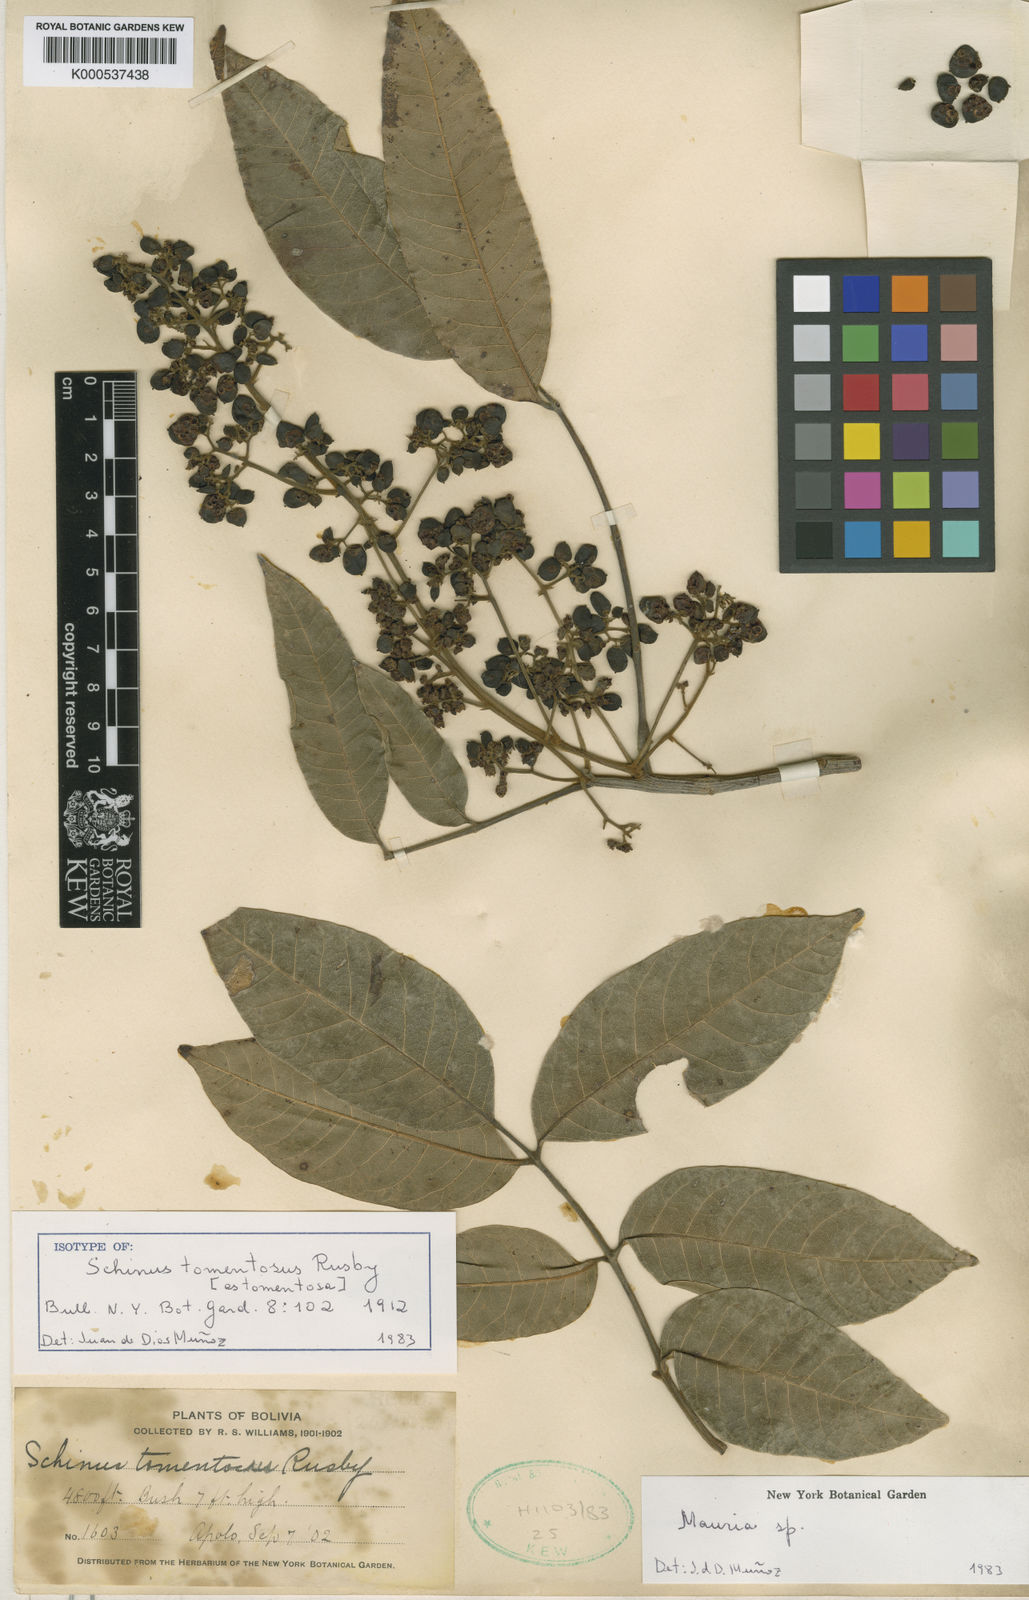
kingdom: Plantae
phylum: Tracheophyta
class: Magnoliopsida
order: Sapindales
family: Anacardiaceae
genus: Mauria
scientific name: Mauria subserrata
